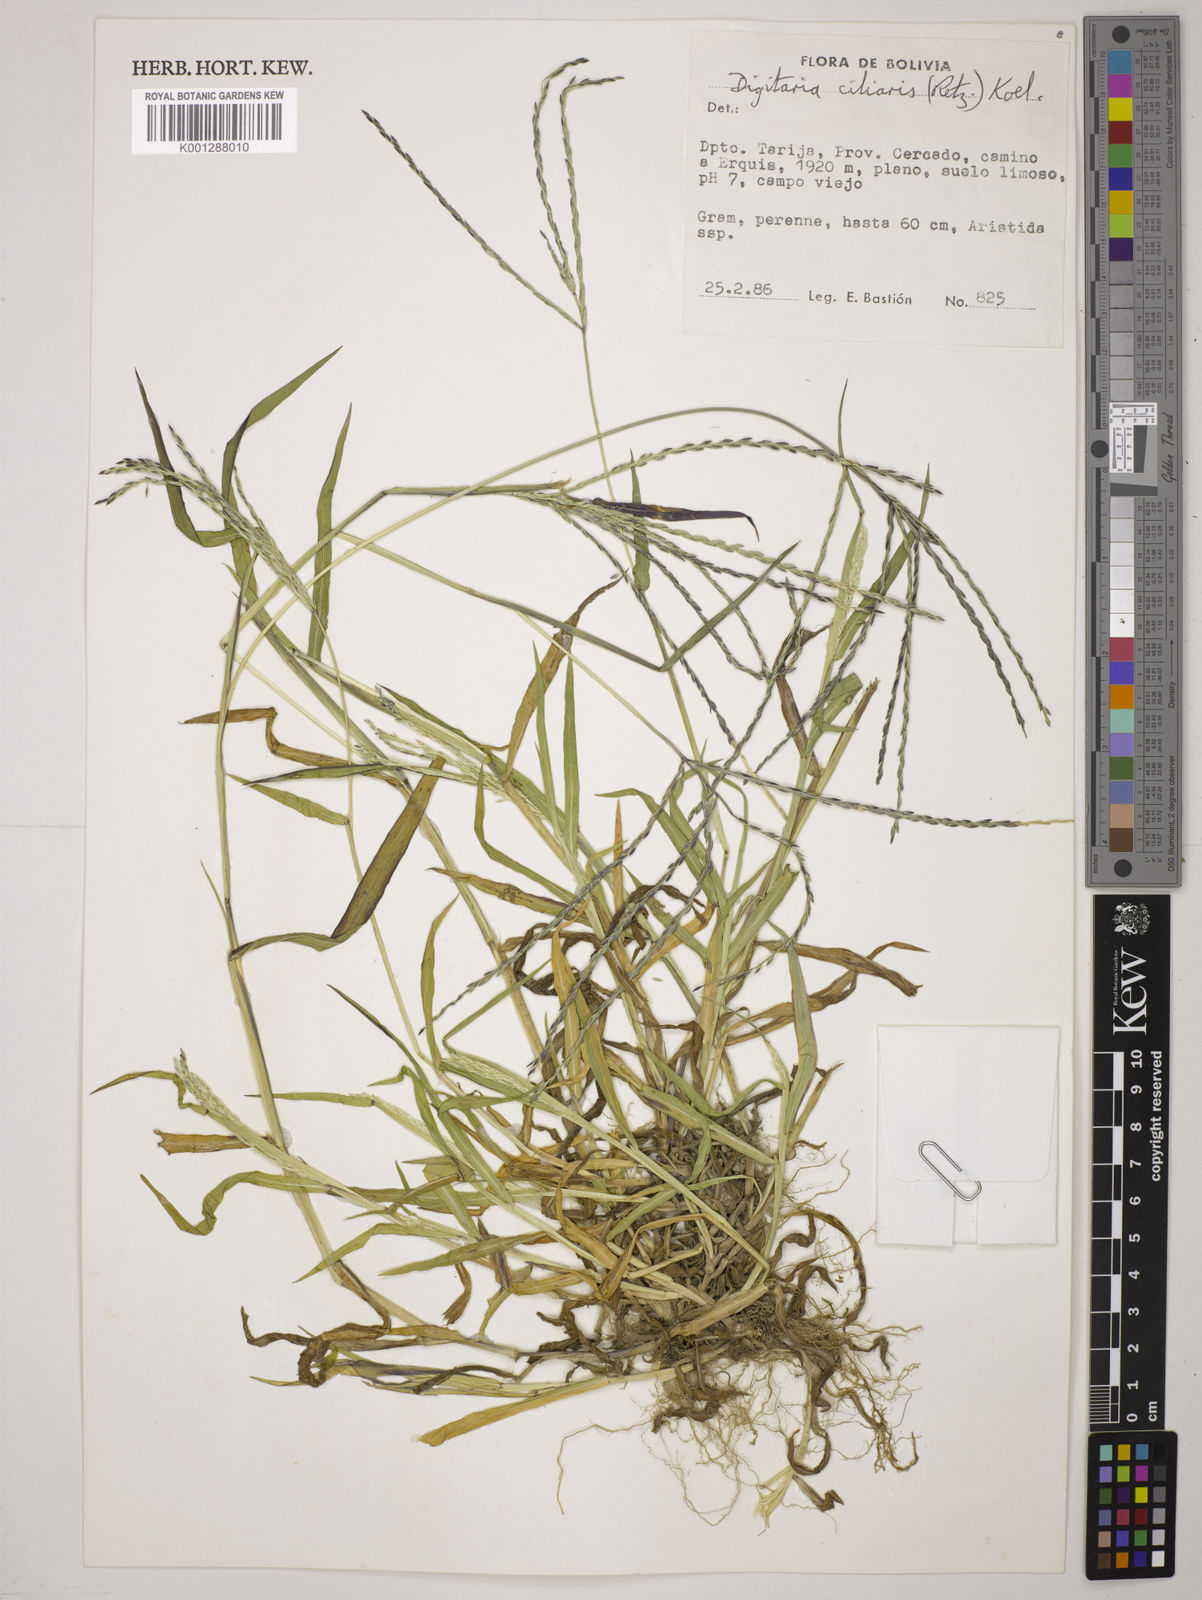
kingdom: Plantae
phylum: Tracheophyta
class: Liliopsida
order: Poales
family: Poaceae
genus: Digitaria
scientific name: Digitaria
